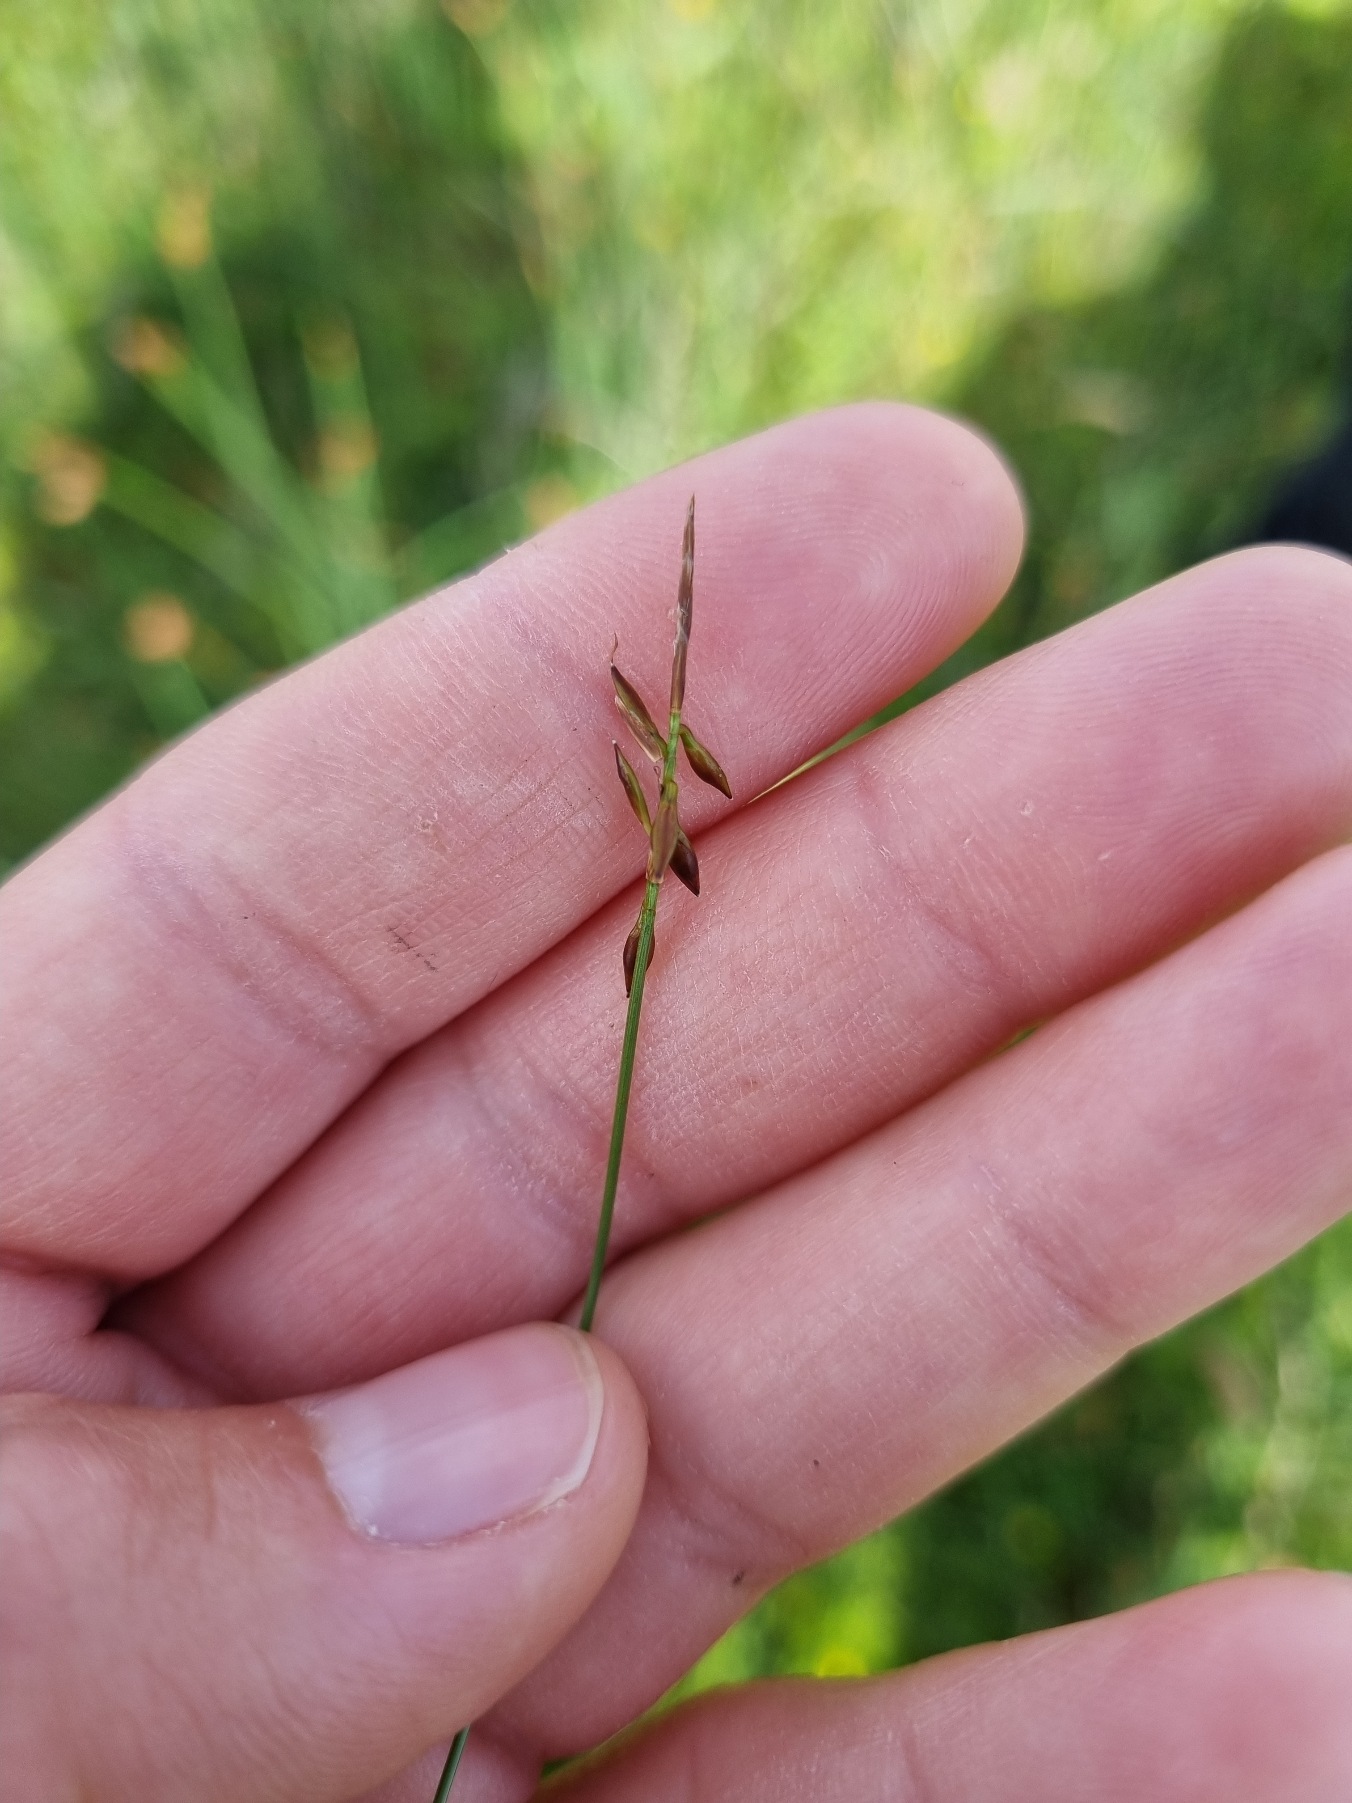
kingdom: Plantae
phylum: Tracheophyta
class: Liliopsida
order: Poales
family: Cyperaceae
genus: Carex
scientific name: Carex pulicaris
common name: Loppe-star
